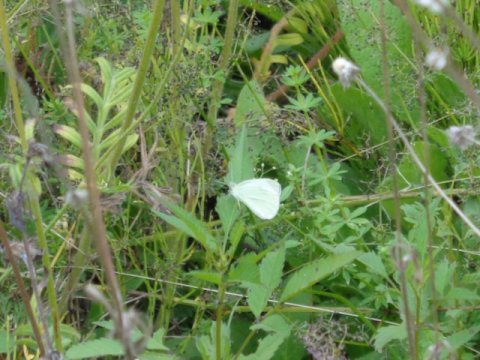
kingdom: Animalia
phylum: Arthropoda
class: Insecta
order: Lepidoptera
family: Pieridae
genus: Pieris
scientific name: Pieris rapae
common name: Cabbage White
